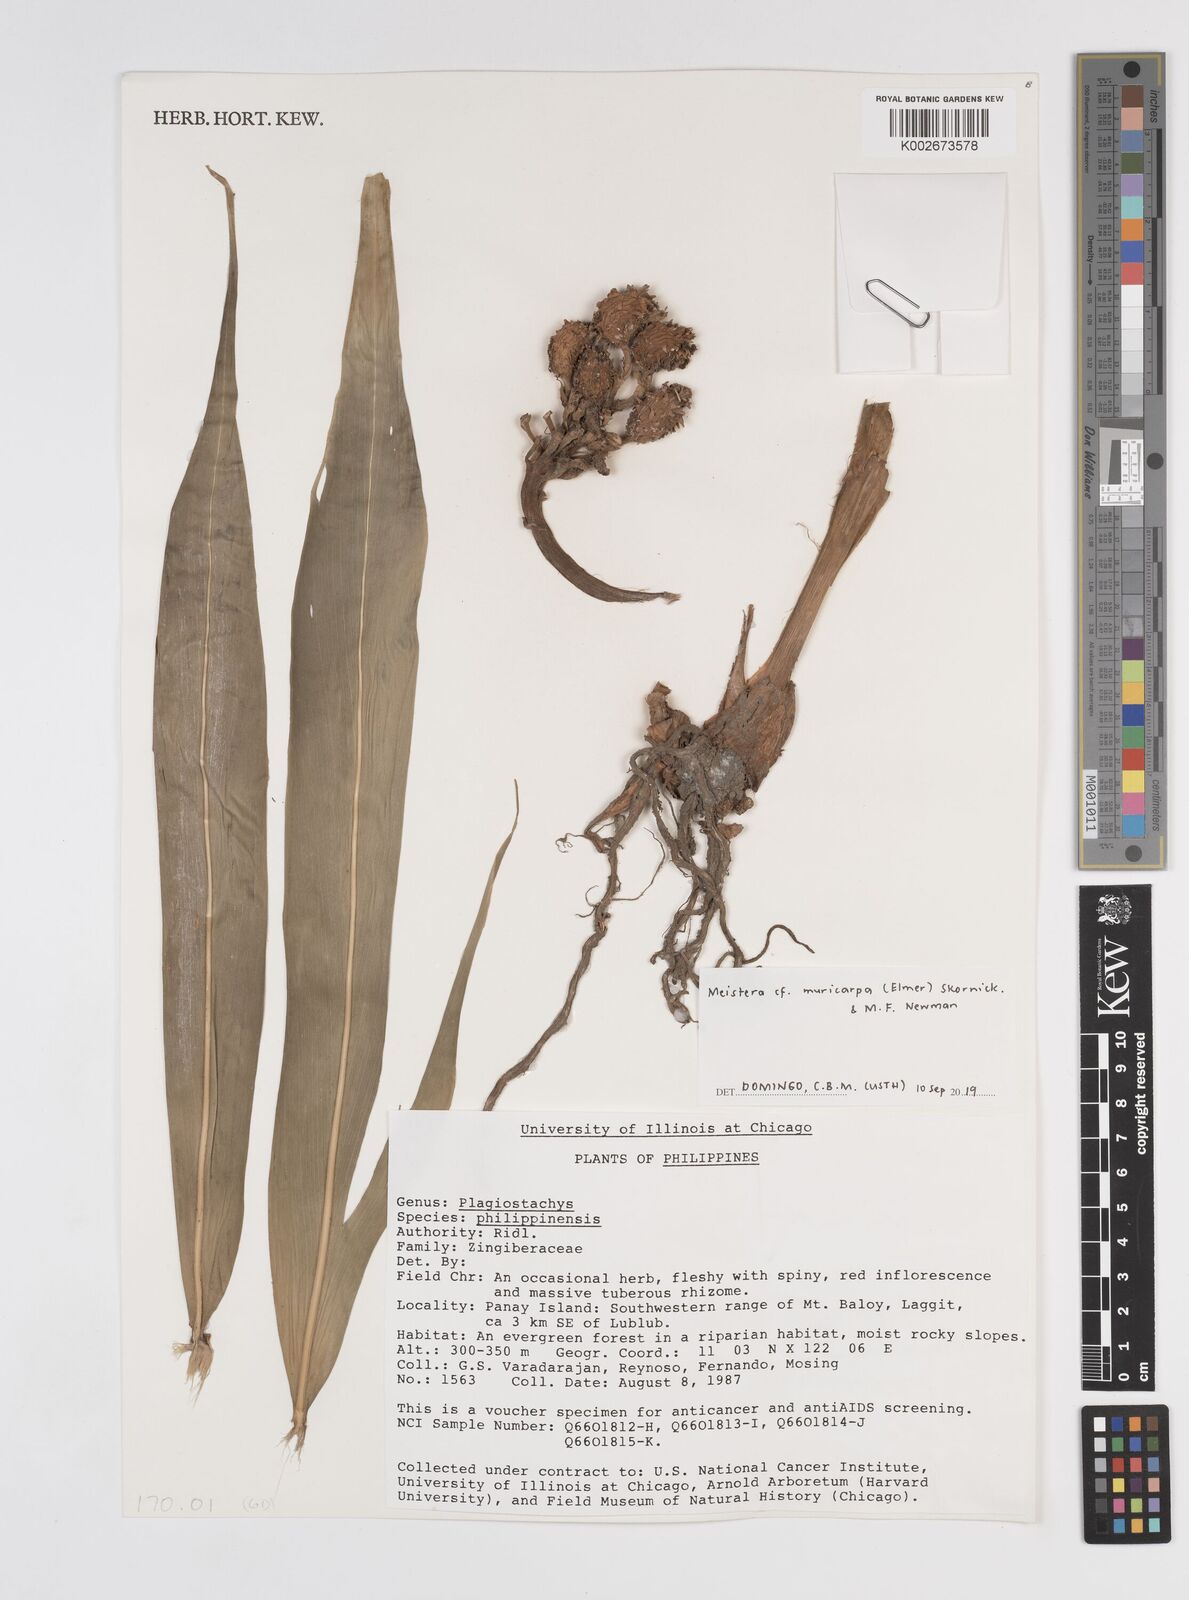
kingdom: Plantae
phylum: Tracheophyta
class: Liliopsida
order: Zingiberales
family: Zingiberaceae
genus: Meistera
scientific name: Meistera muricarpa
